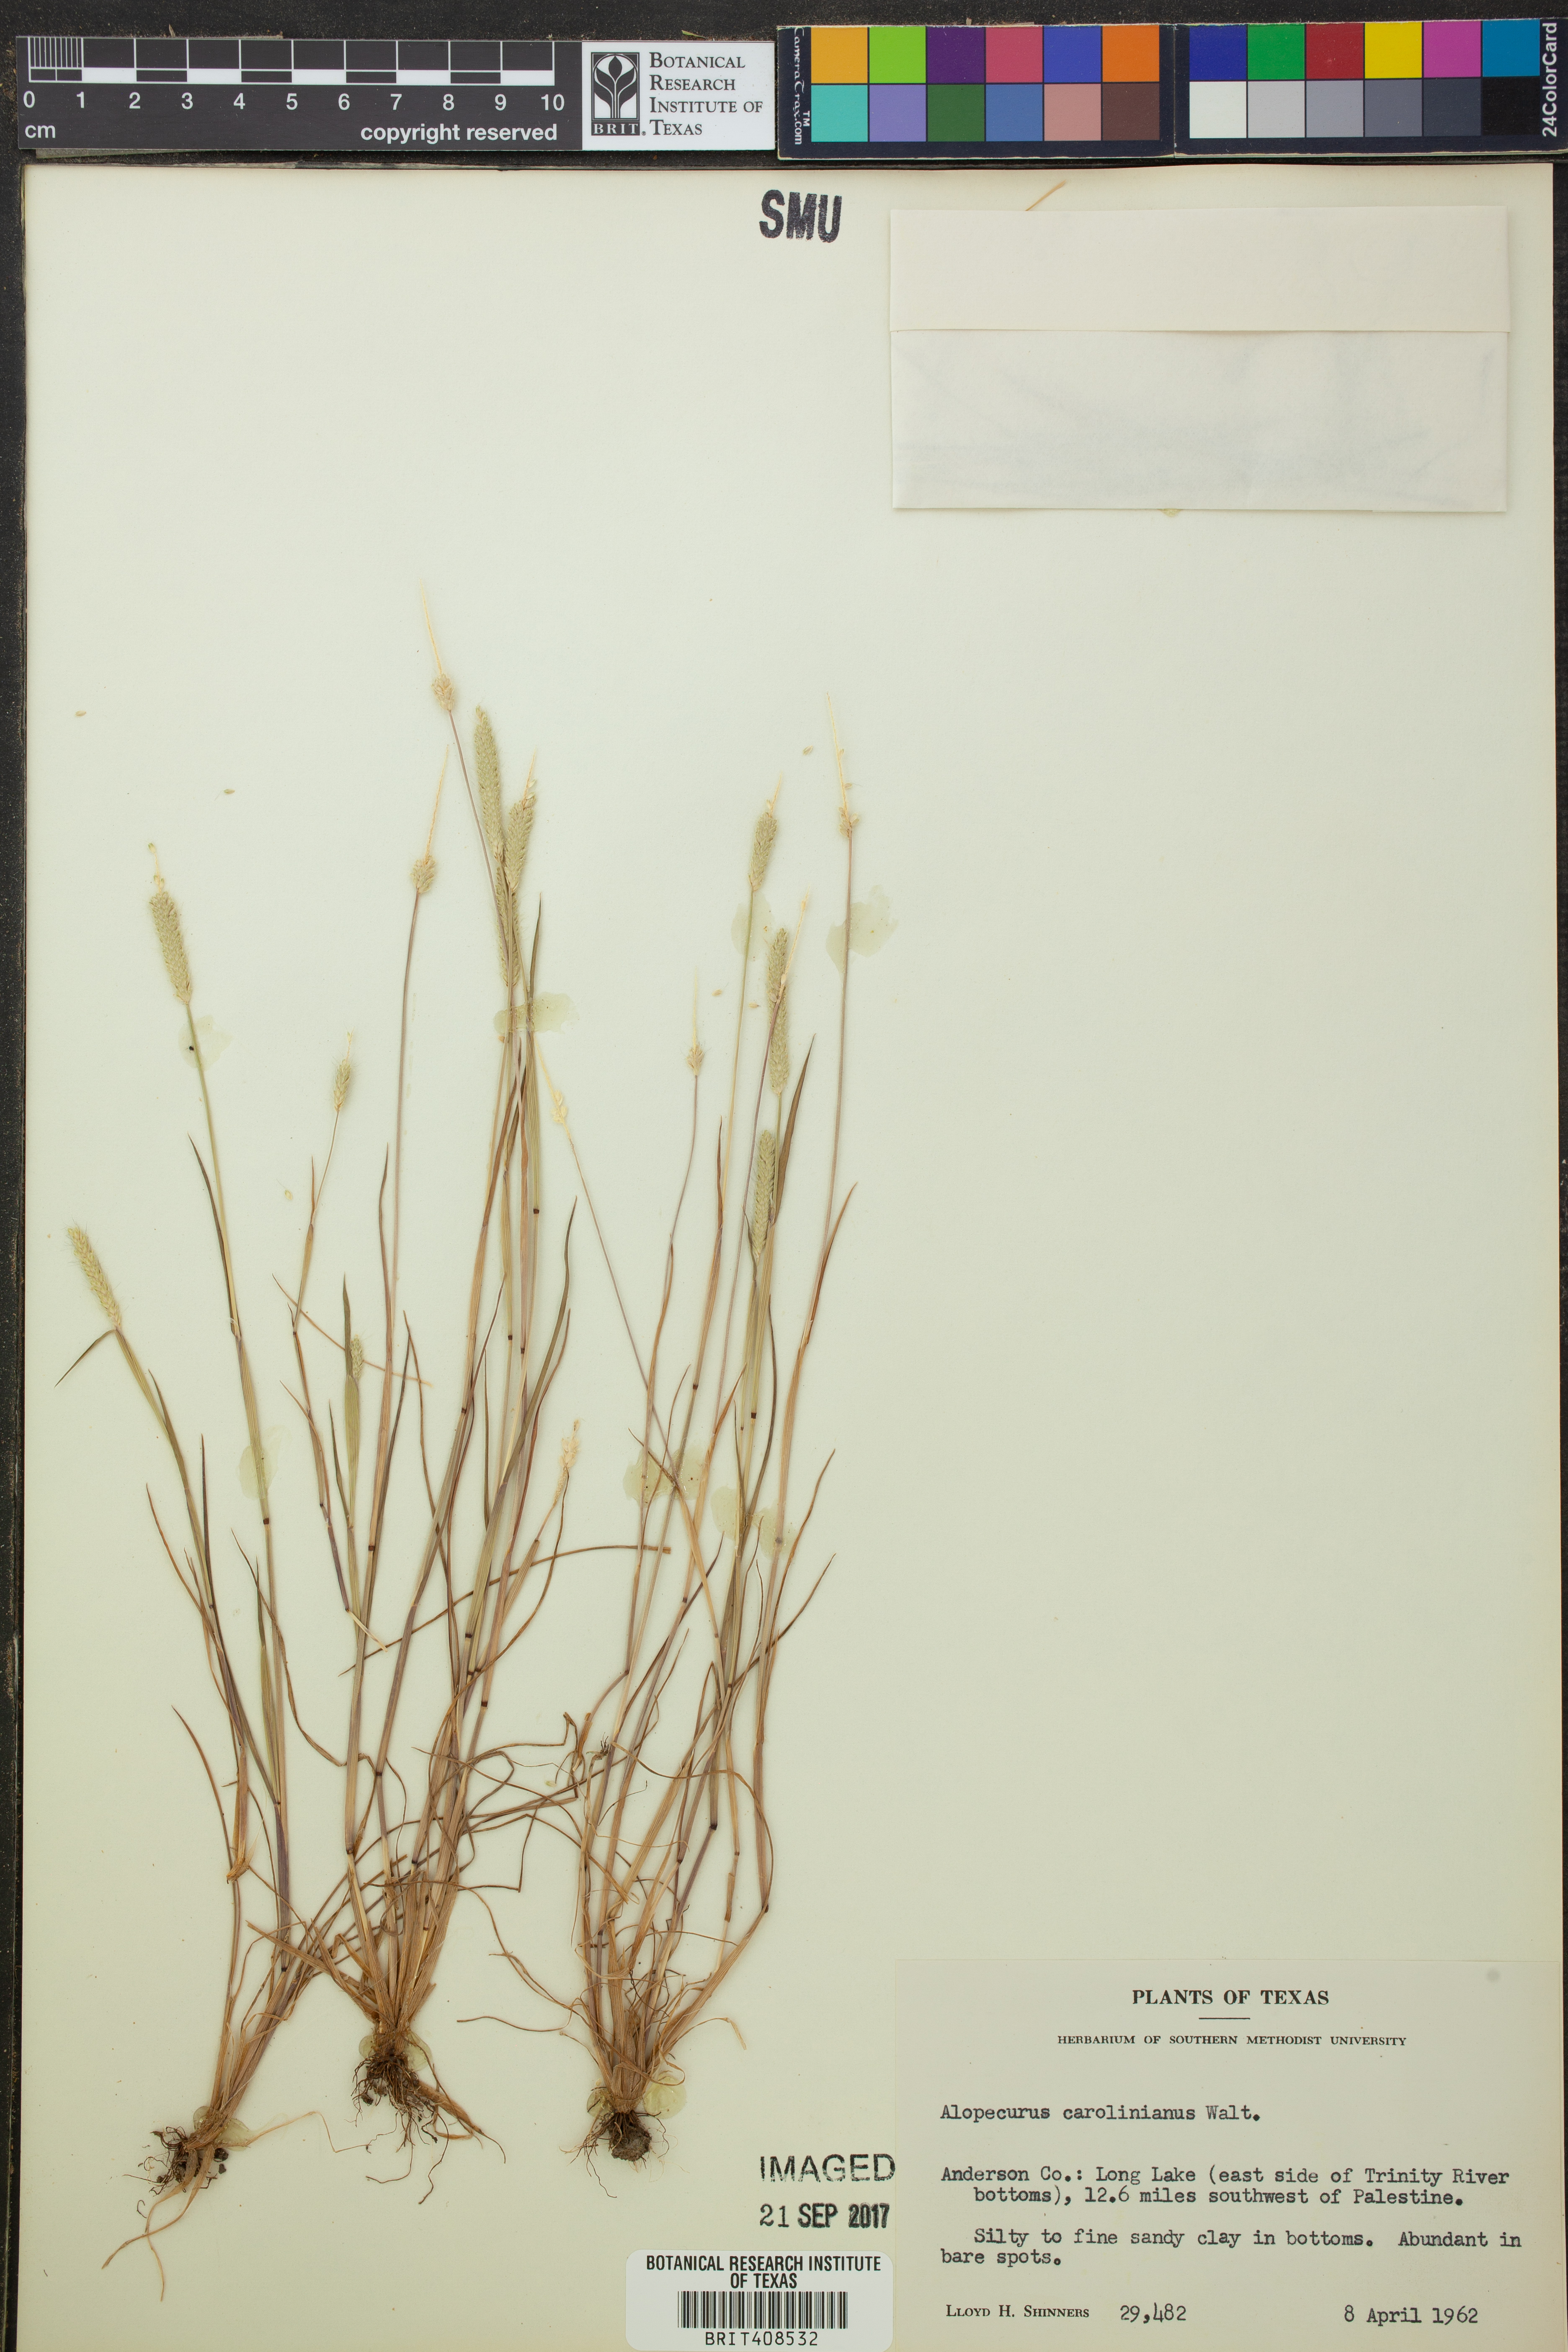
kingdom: Plantae
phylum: Tracheophyta
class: Liliopsida
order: Poales
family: Poaceae
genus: Alopecurus
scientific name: Alopecurus carolinianus
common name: Tufted foxtail
